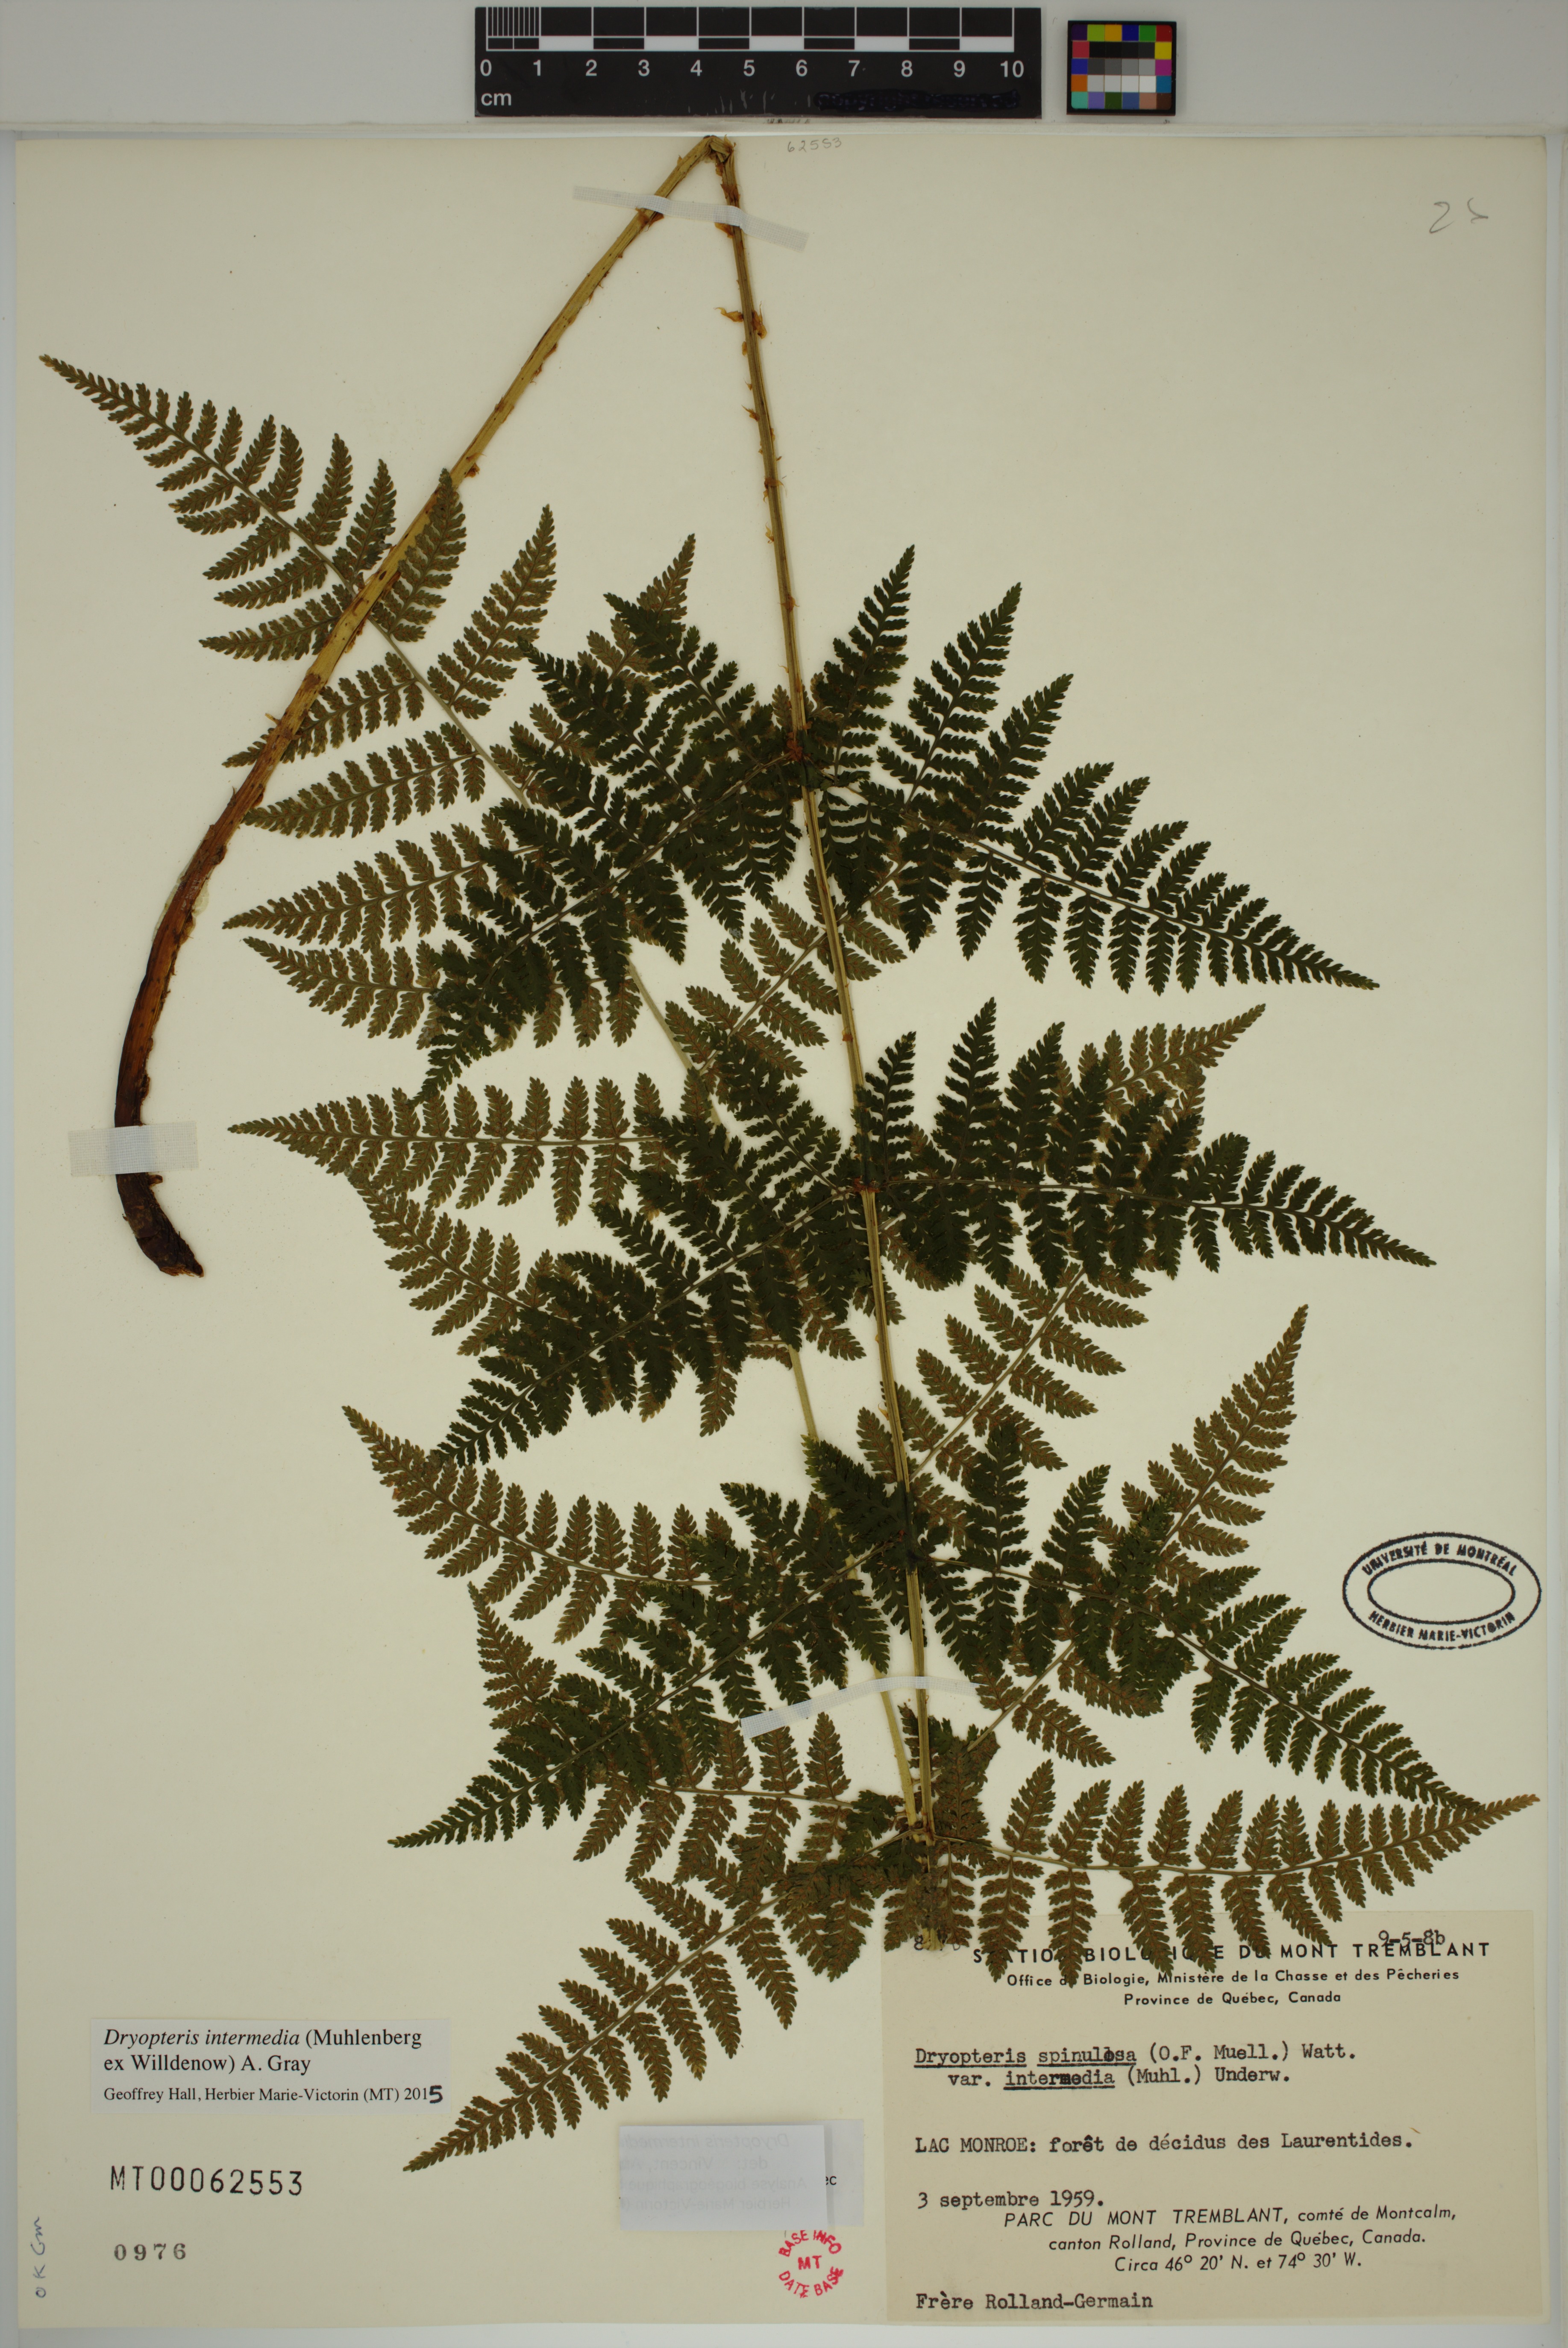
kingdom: Plantae
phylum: Tracheophyta
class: Polypodiopsida
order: Polypodiales
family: Dryopteridaceae
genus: Dryopteris
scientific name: Dryopteris intermedia
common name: Evergreen wood fern
